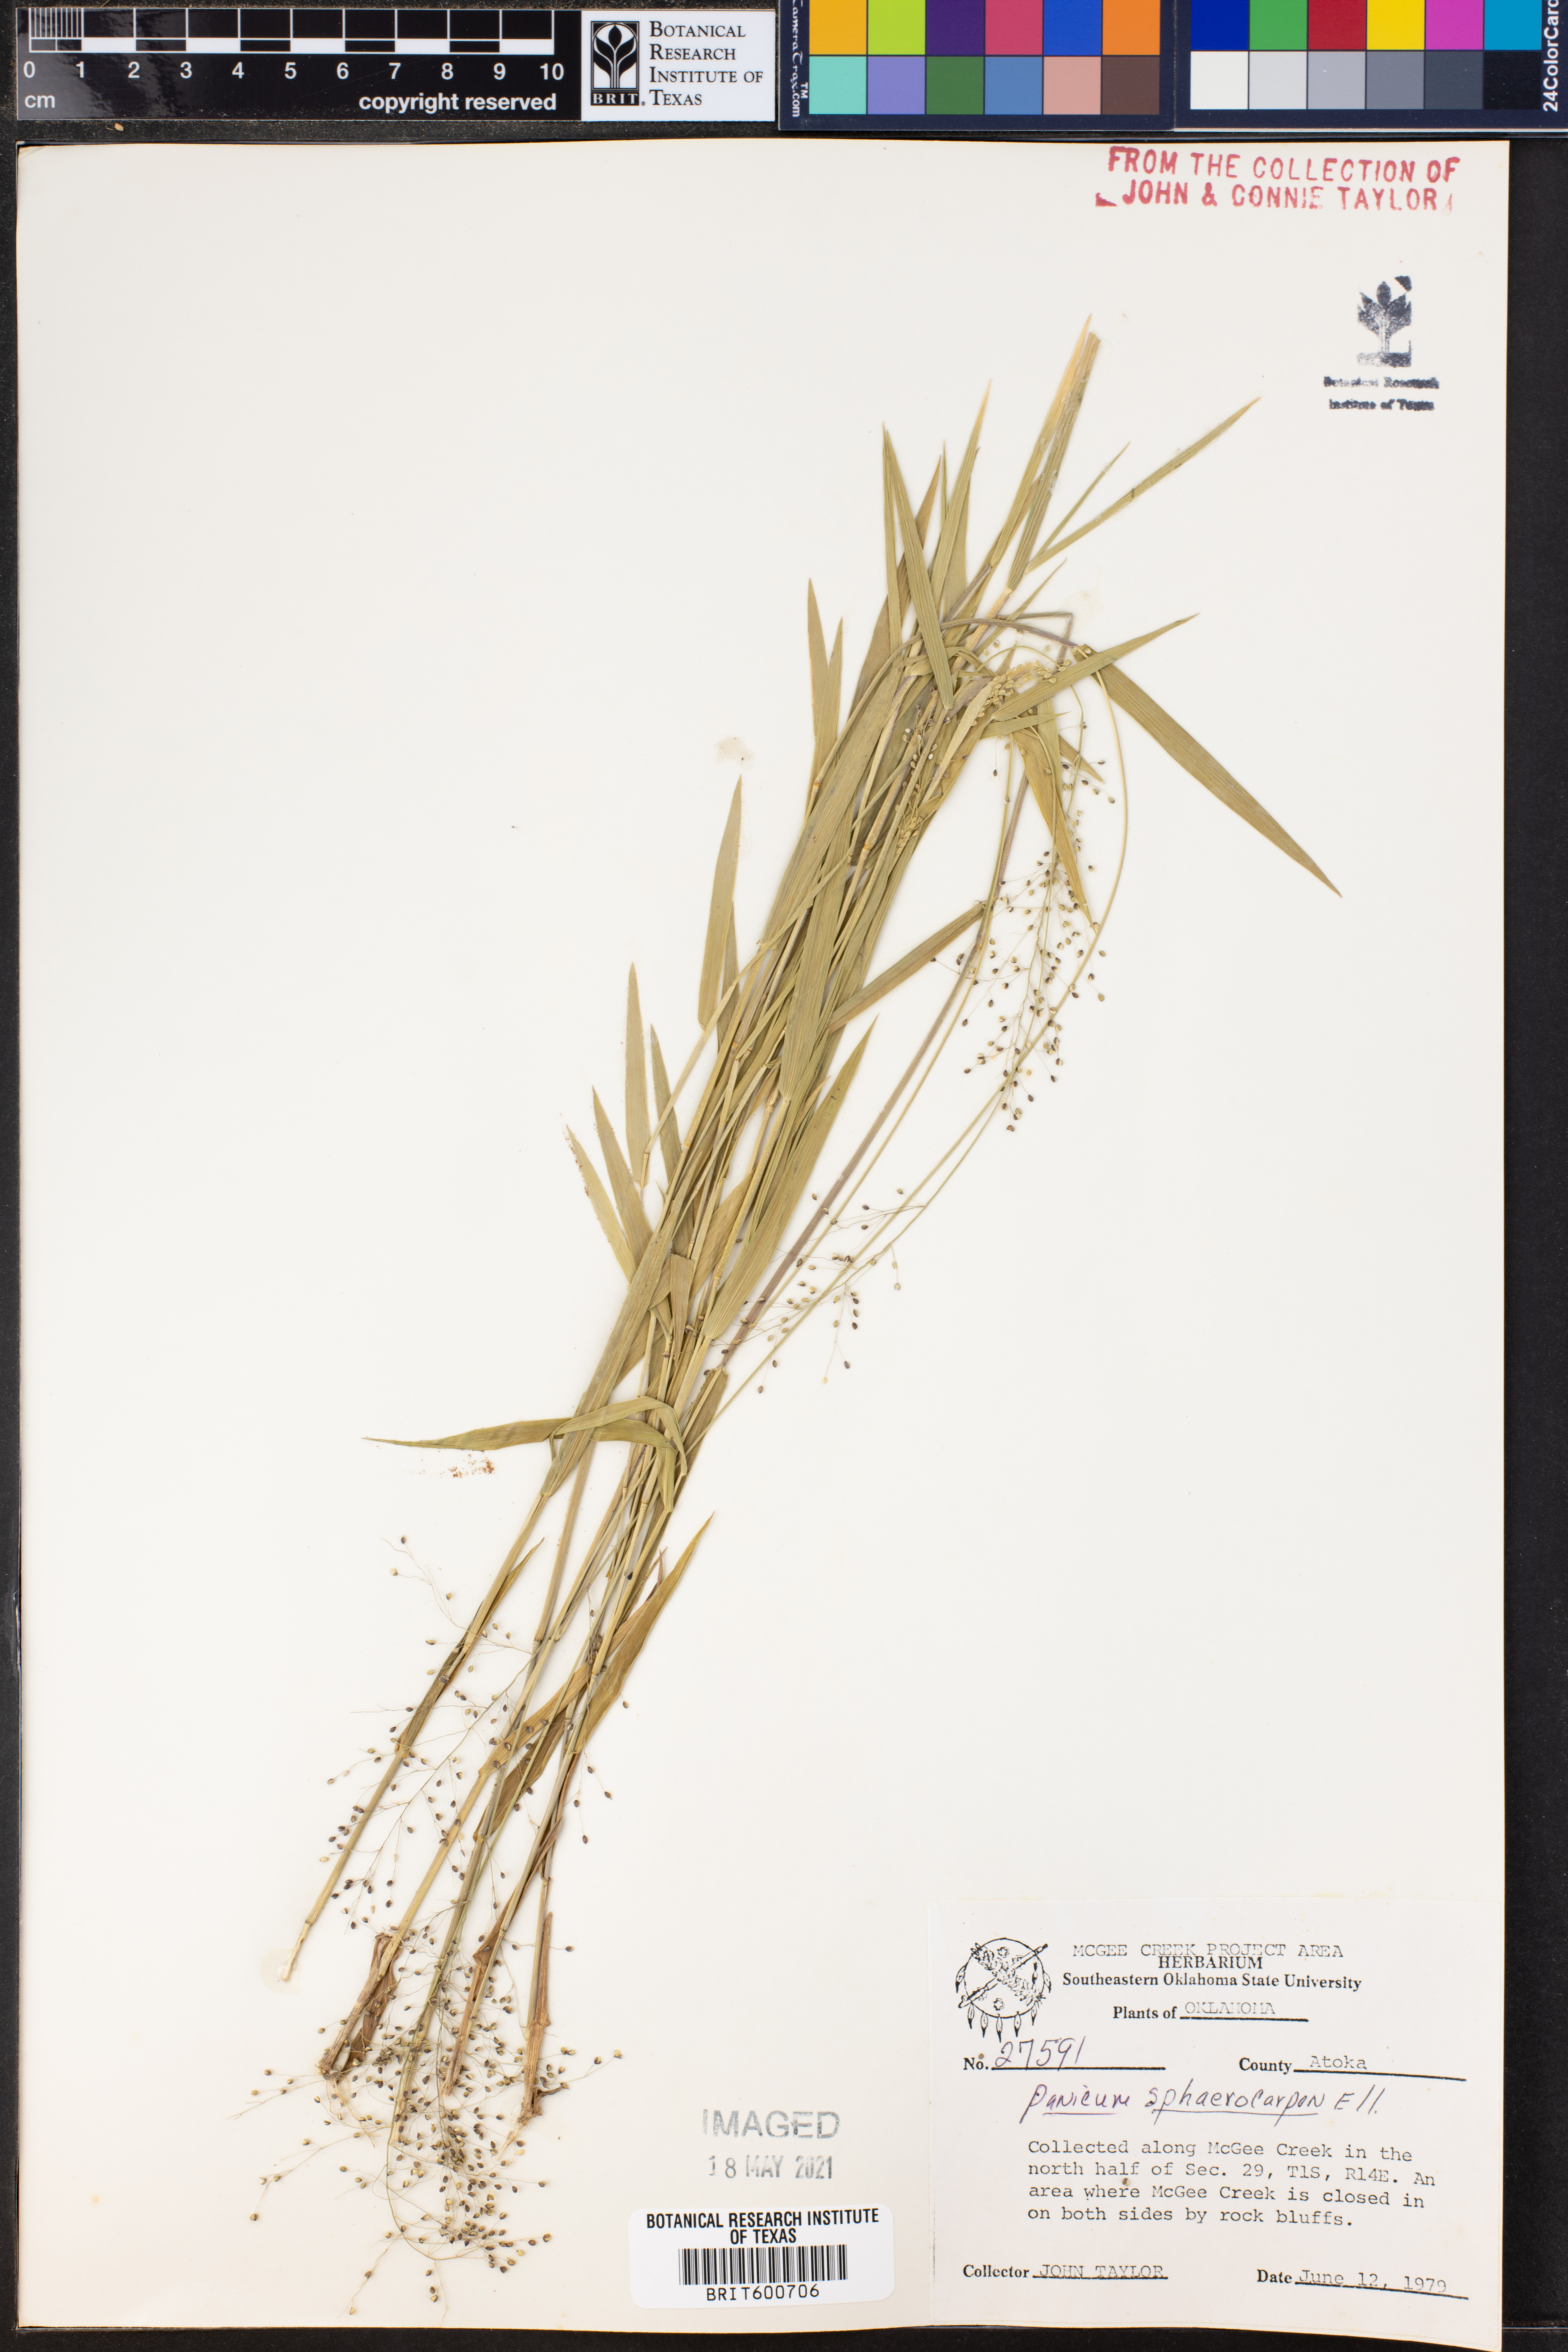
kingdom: Plantae
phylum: Tracheophyta
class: Liliopsida
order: Poales
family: Poaceae
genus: Dichanthelium
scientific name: Dichanthelium sphaerocarpon
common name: Round-fruited panicgrass
